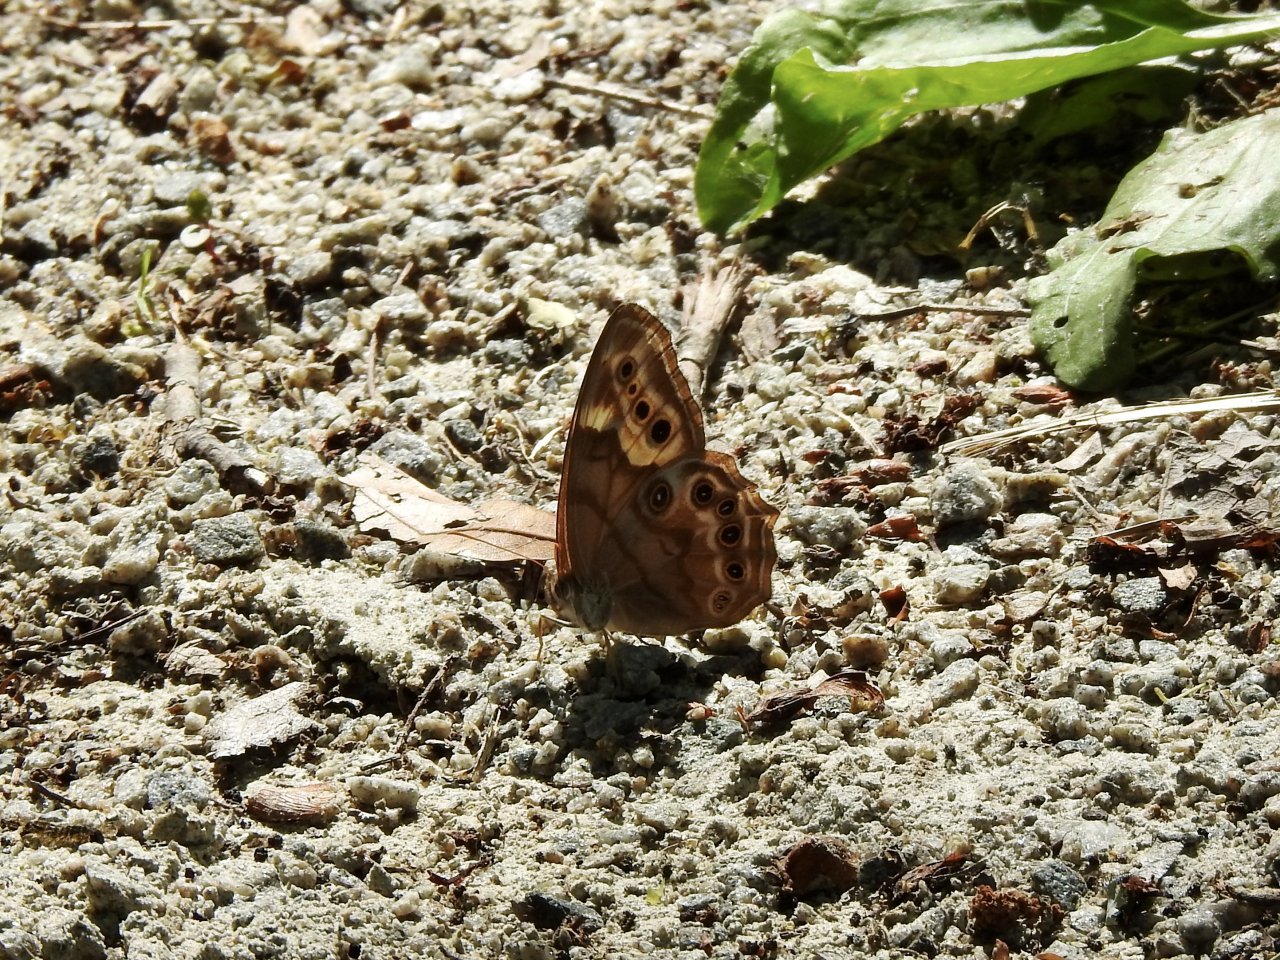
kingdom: Animalia
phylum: Arthropoda
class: Insecta
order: Lepidoptera
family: Nymphalidae
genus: Lethe
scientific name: Lethe
